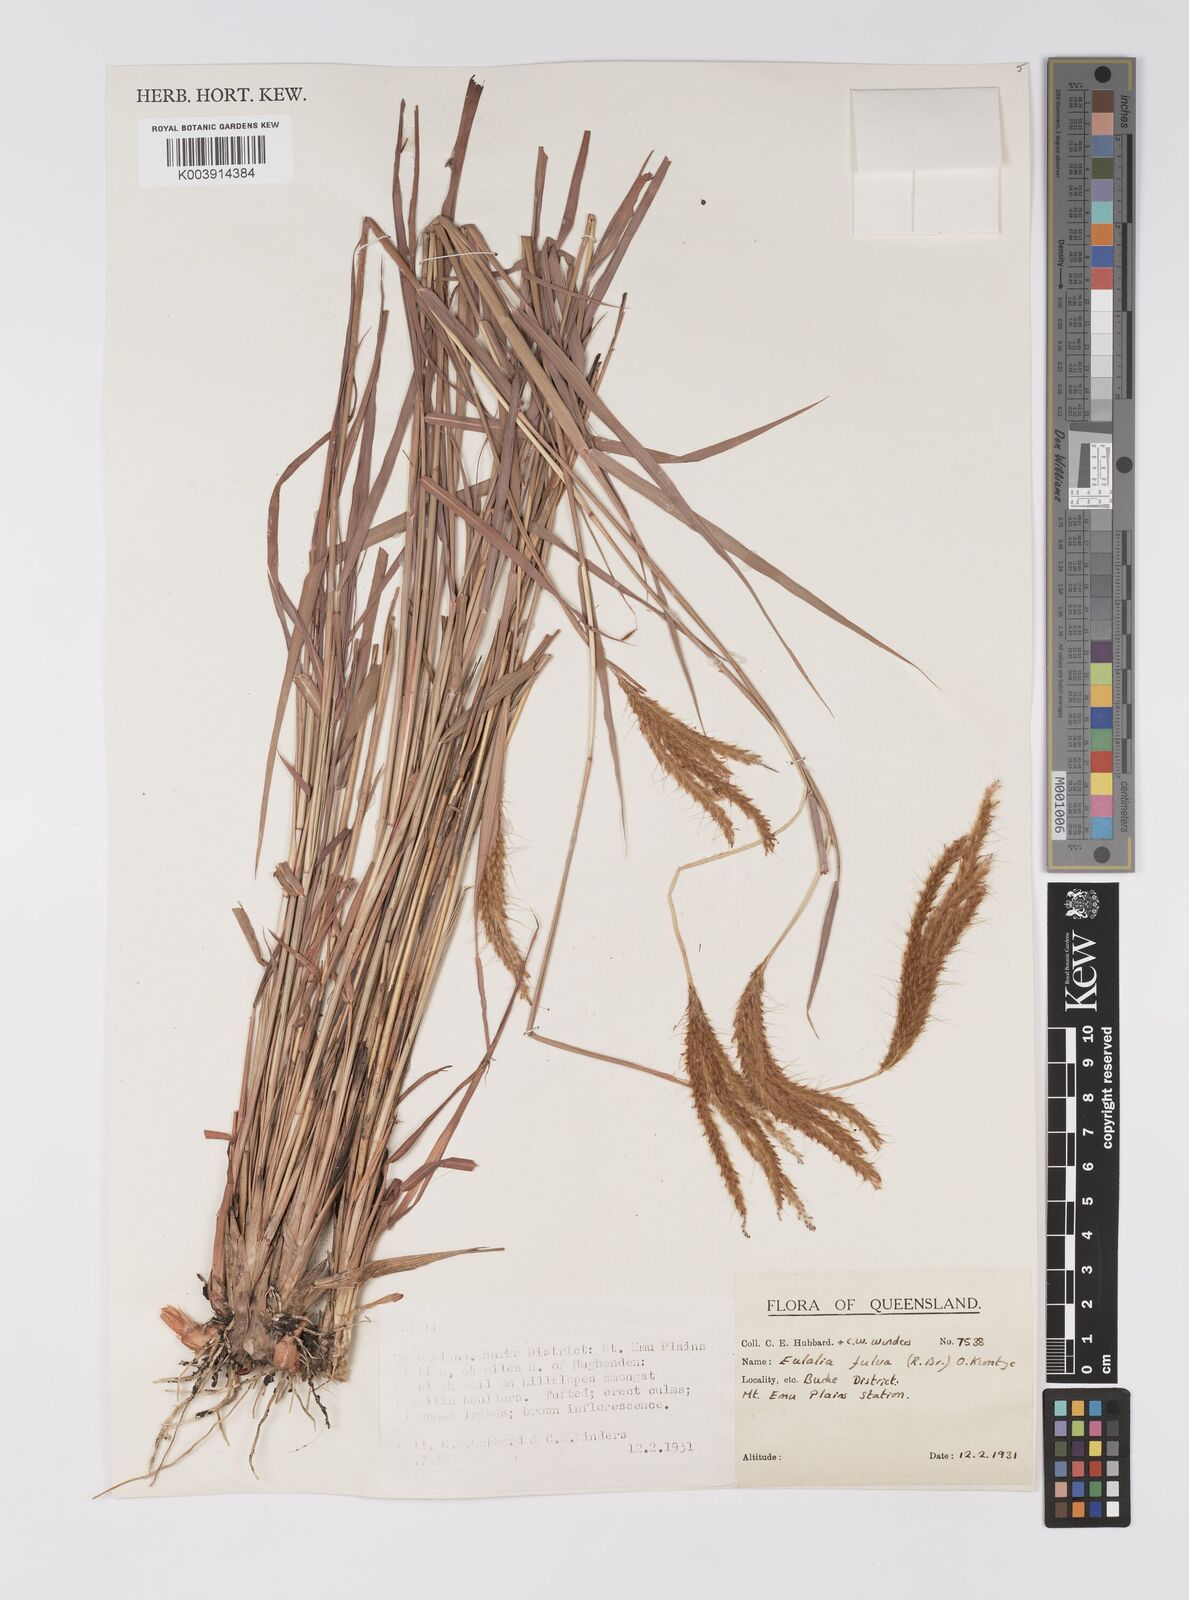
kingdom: Plantae
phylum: Tracheophyta
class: Liliopsida
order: Poales
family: Poaceae
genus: Eulalia
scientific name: Eulalia aurea
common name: Silky browntop
